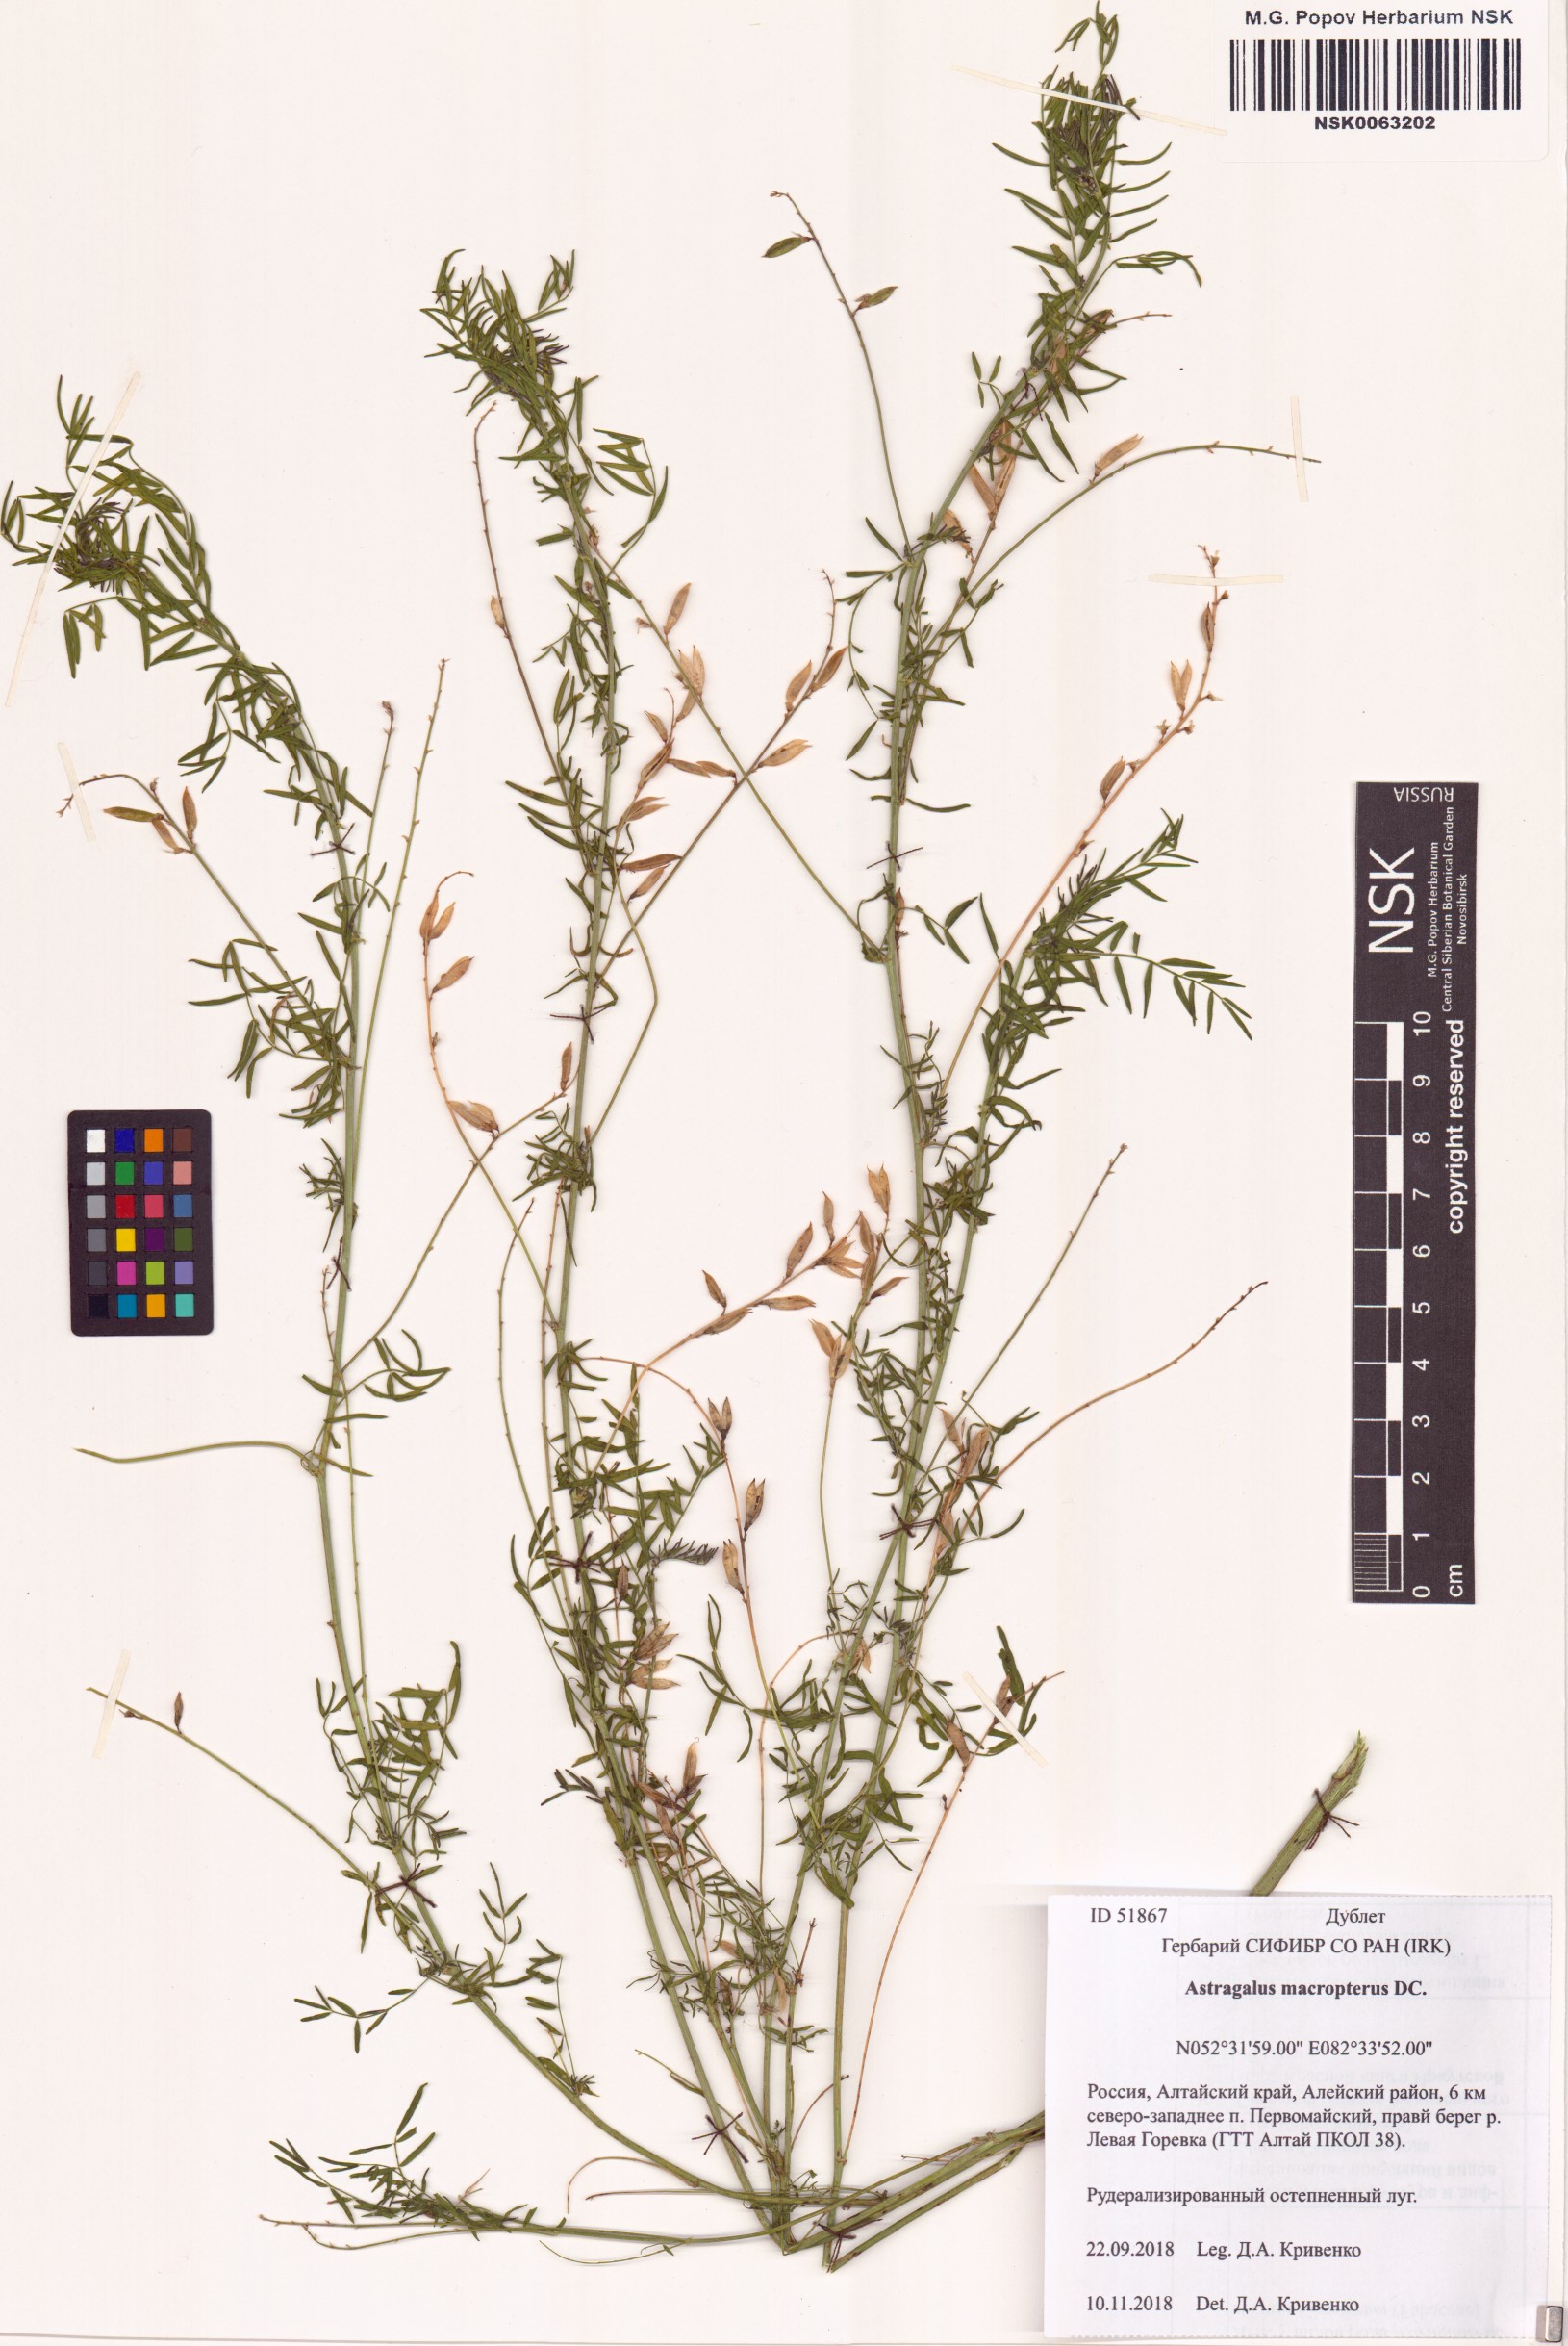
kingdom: Plantae
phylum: Tracheophyta
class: Magnoliopsida
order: Fabales
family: Fabaceae
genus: Astragalus
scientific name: Astragalus leptostachys
